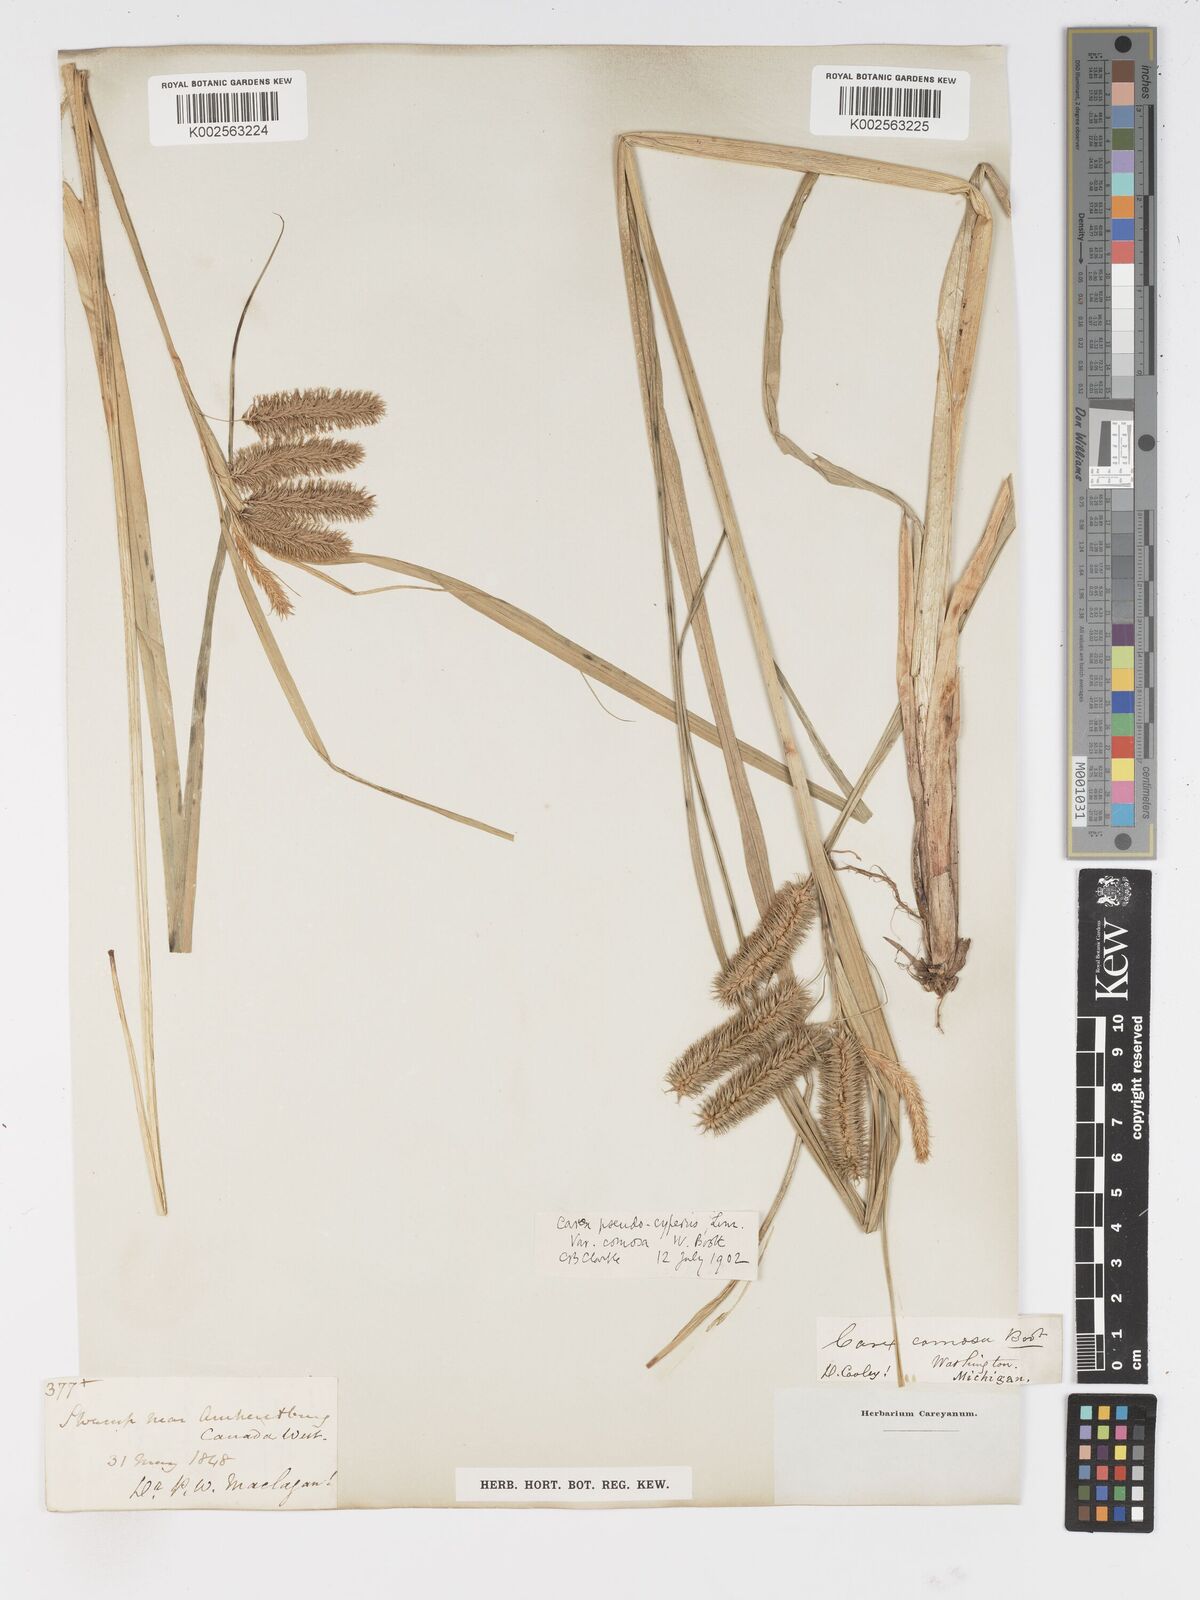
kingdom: Plantae
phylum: Tracheophyta
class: Liliopsida
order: Poales
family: Cyperaceae
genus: Carex
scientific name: Carex comosa
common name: Bristly sedge
